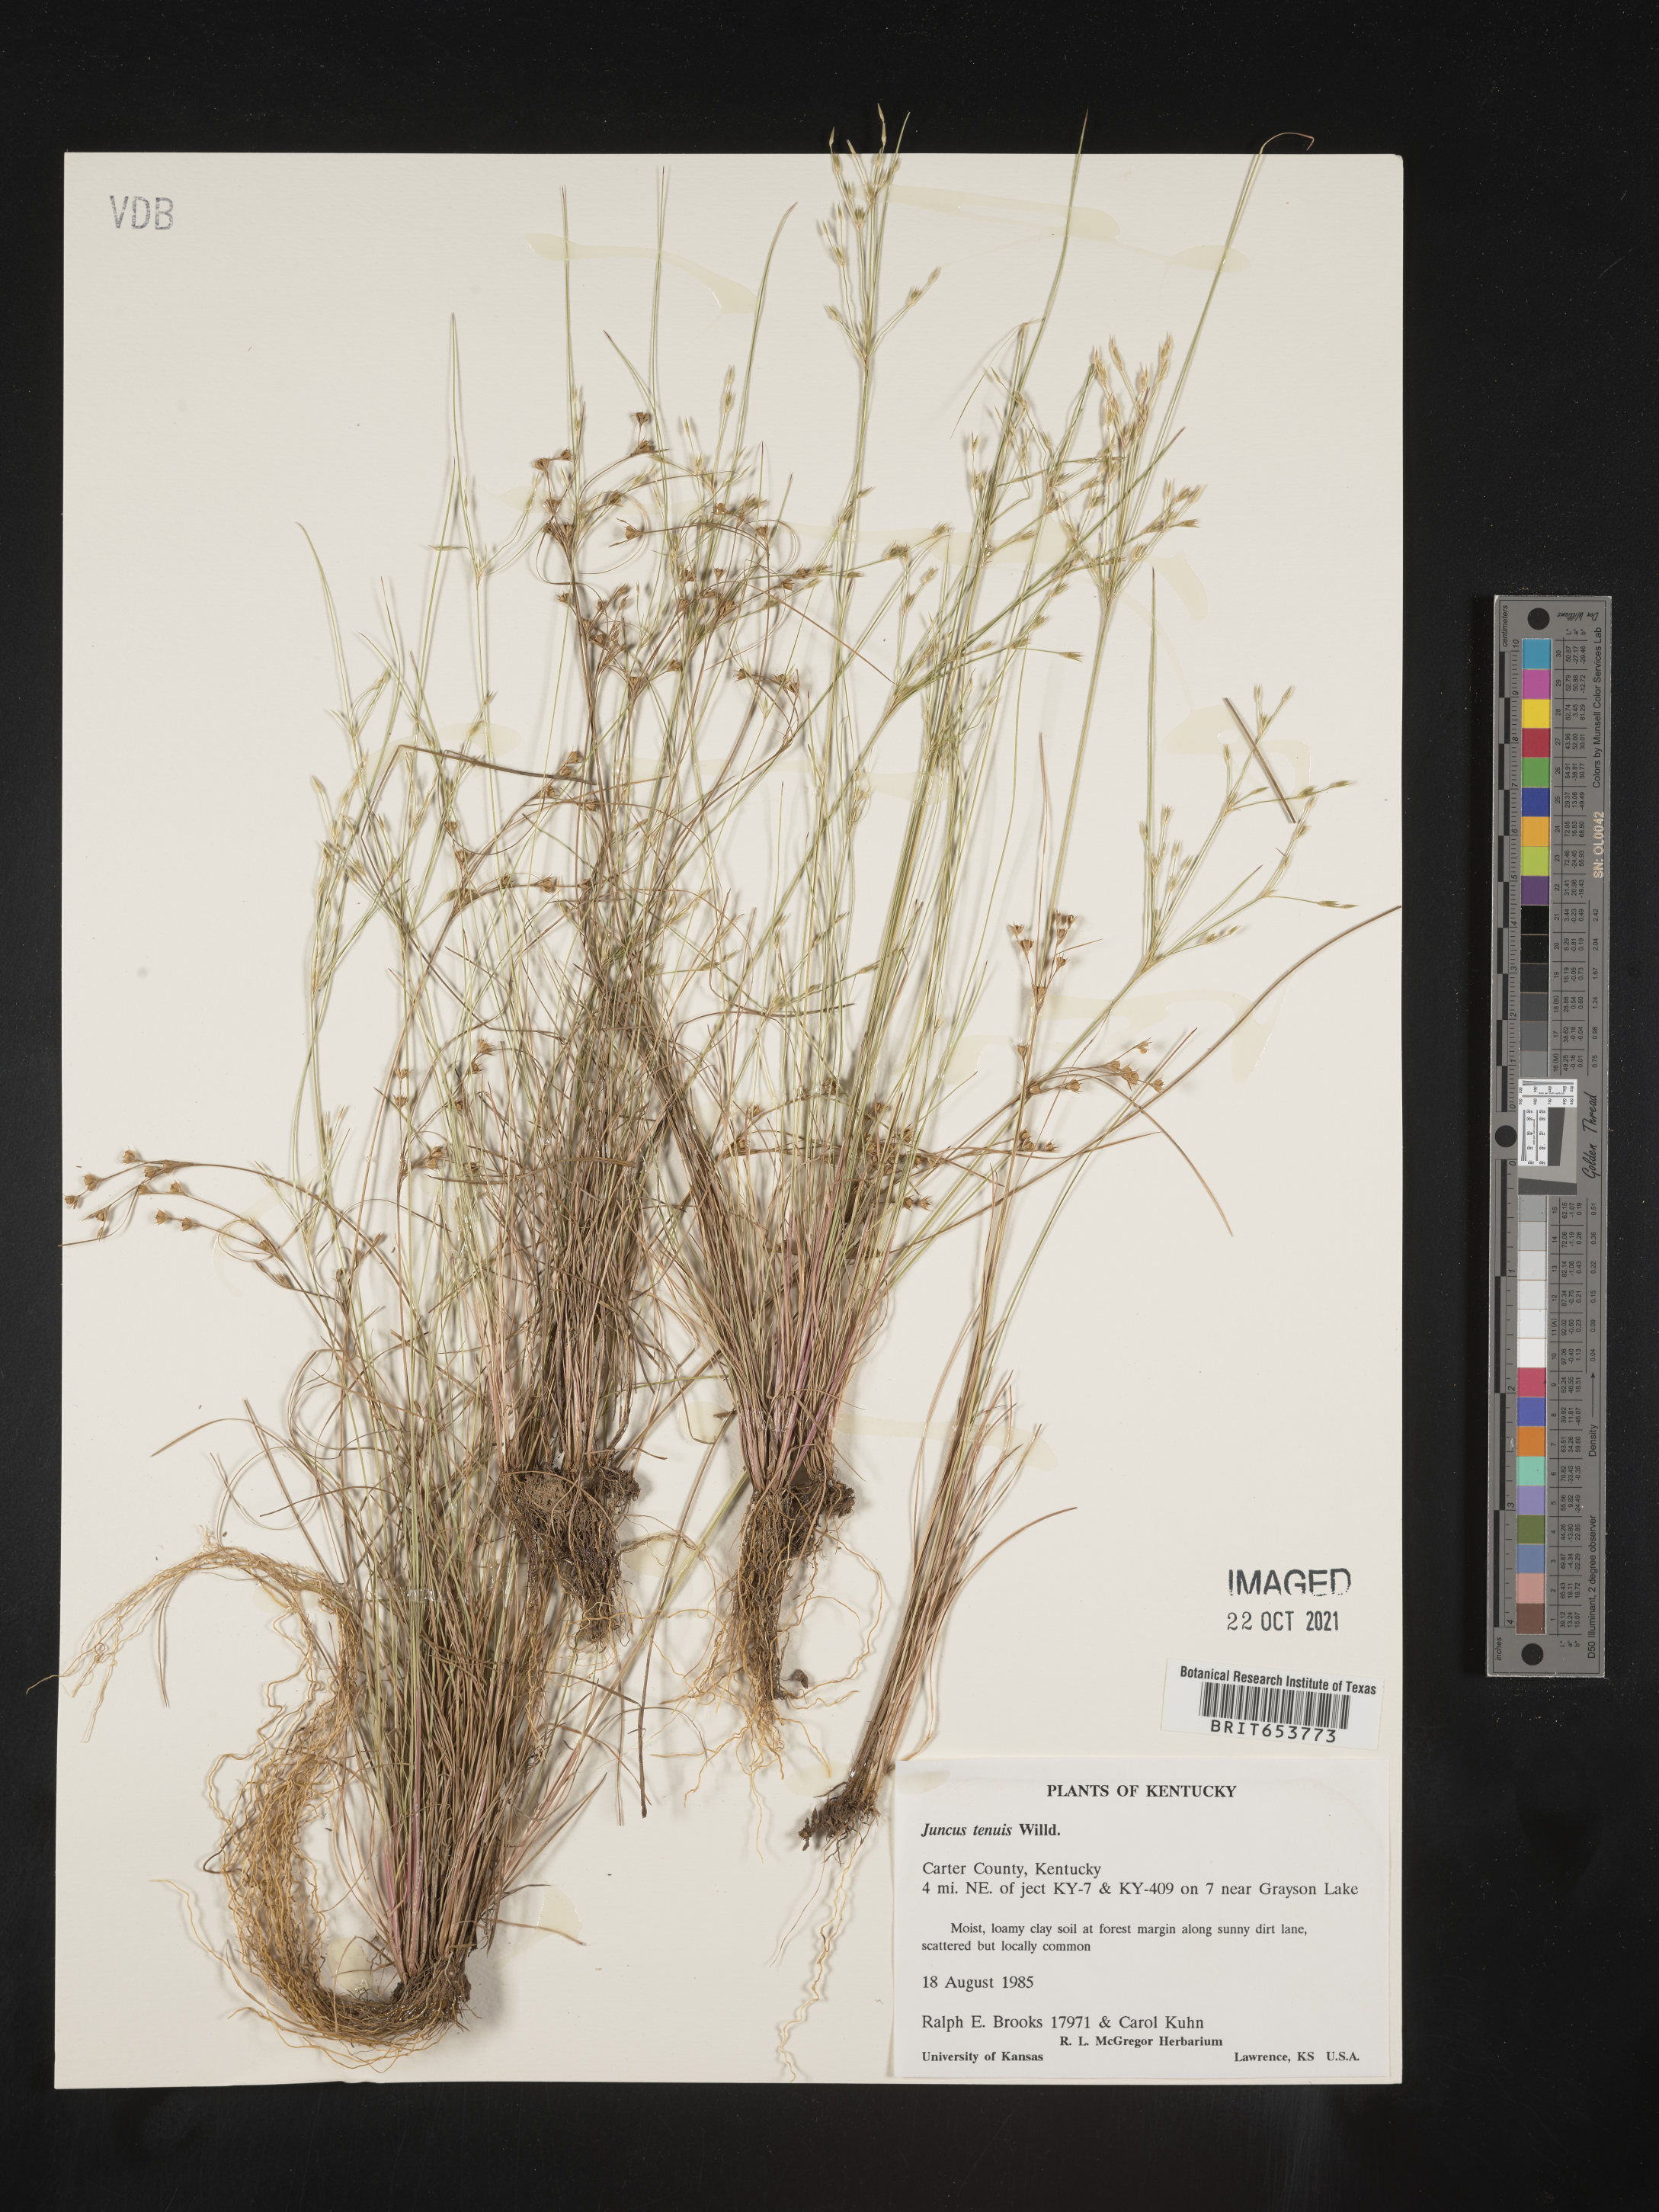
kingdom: Plantae
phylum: Tracheophyta
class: Liliopsida
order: Poales
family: Juncaceae
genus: Juncus
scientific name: Juncus tenuis
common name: Slender rush
